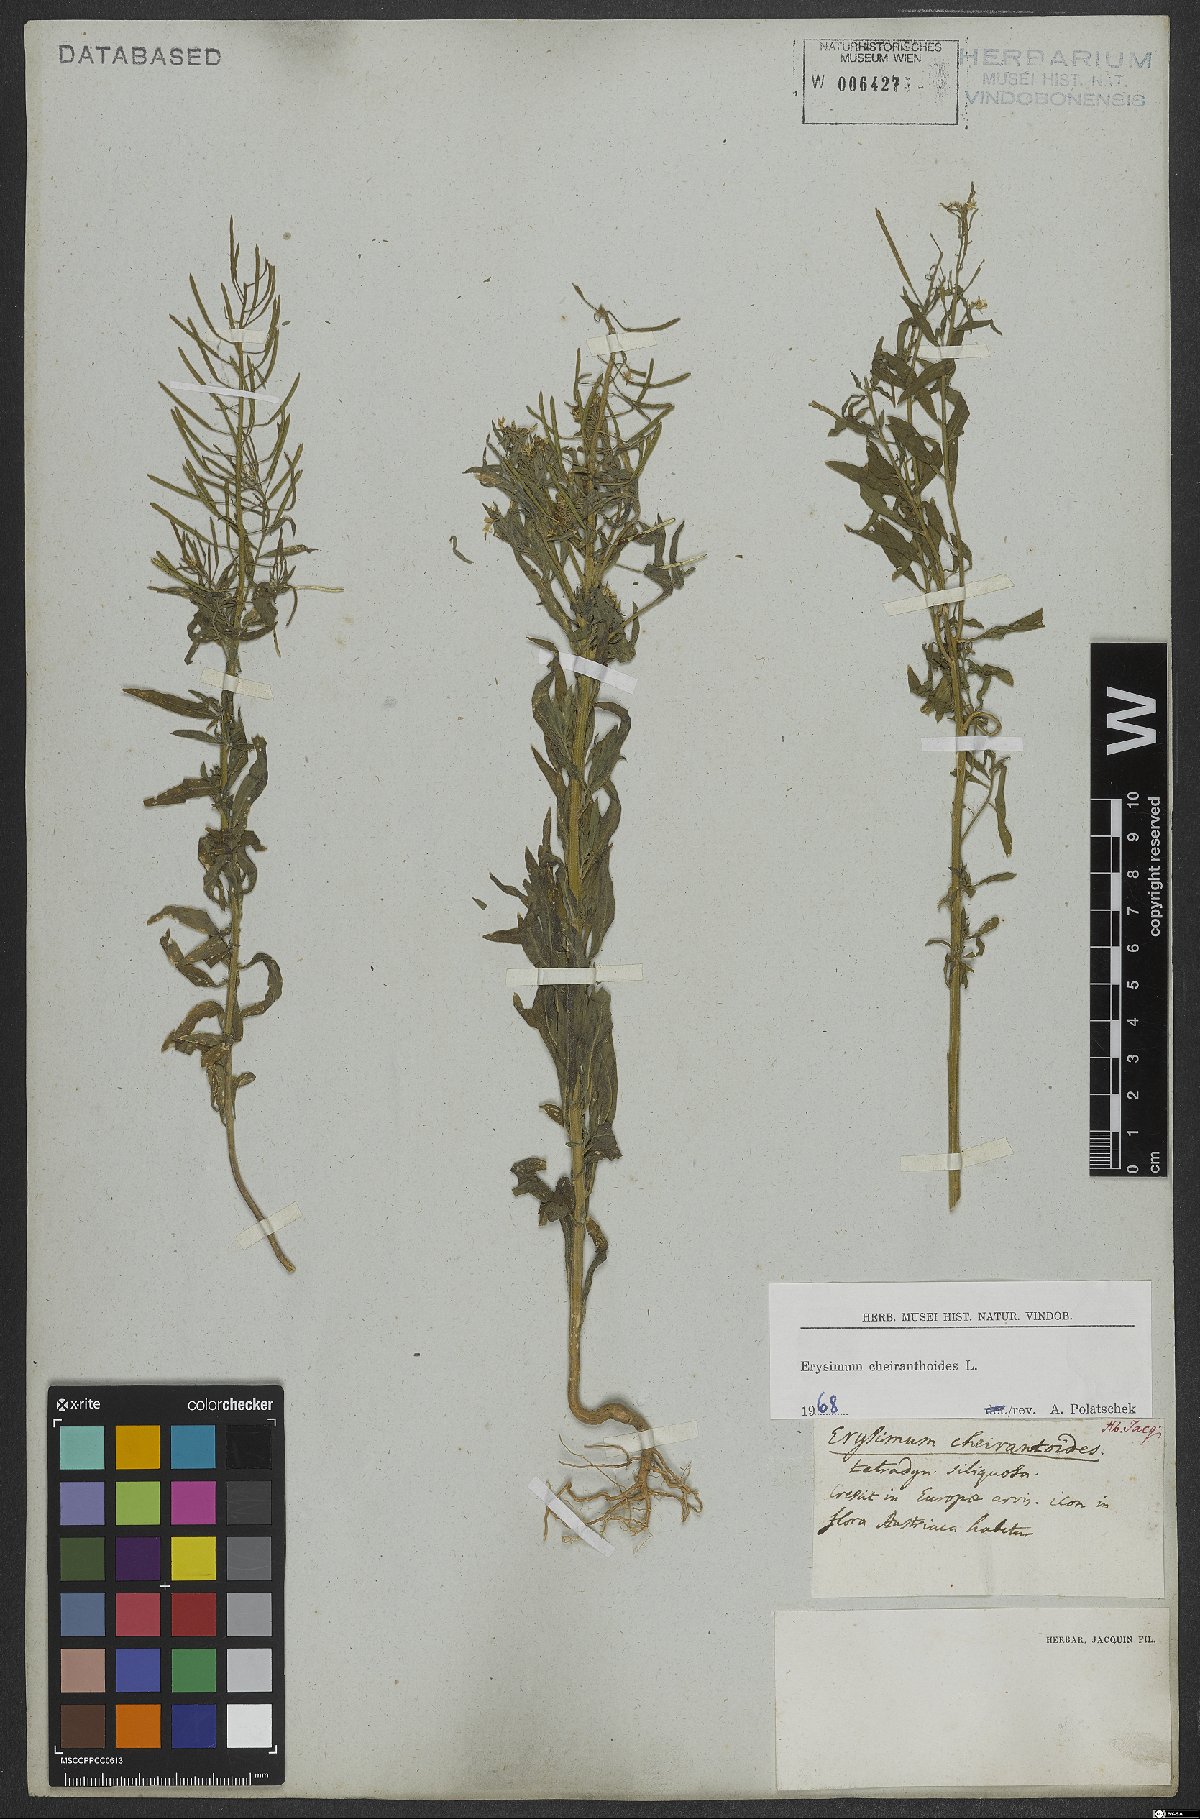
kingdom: Plantae
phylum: Tracheophyta
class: Magnoliopsida
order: Brassicales
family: Brassicaceae
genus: Erysimum
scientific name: Erysimum cheiranthoides
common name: Treacle mustard
